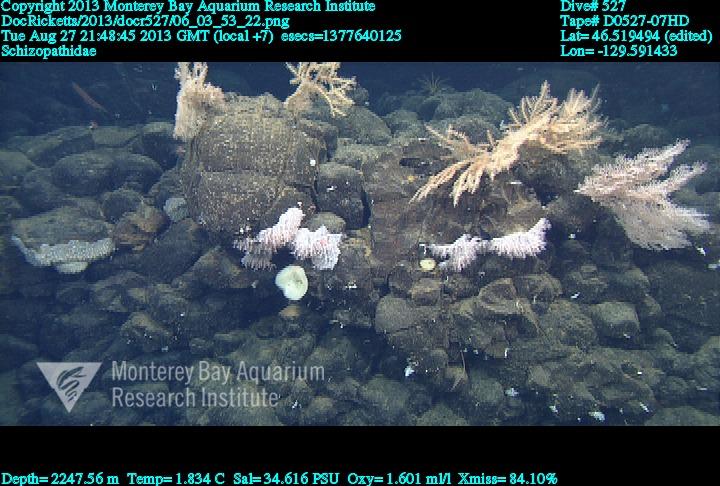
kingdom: Animalia
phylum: Cnidaria
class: Anthozoa
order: Antipatharia
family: Schizopathidae
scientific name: Schizopathidae
